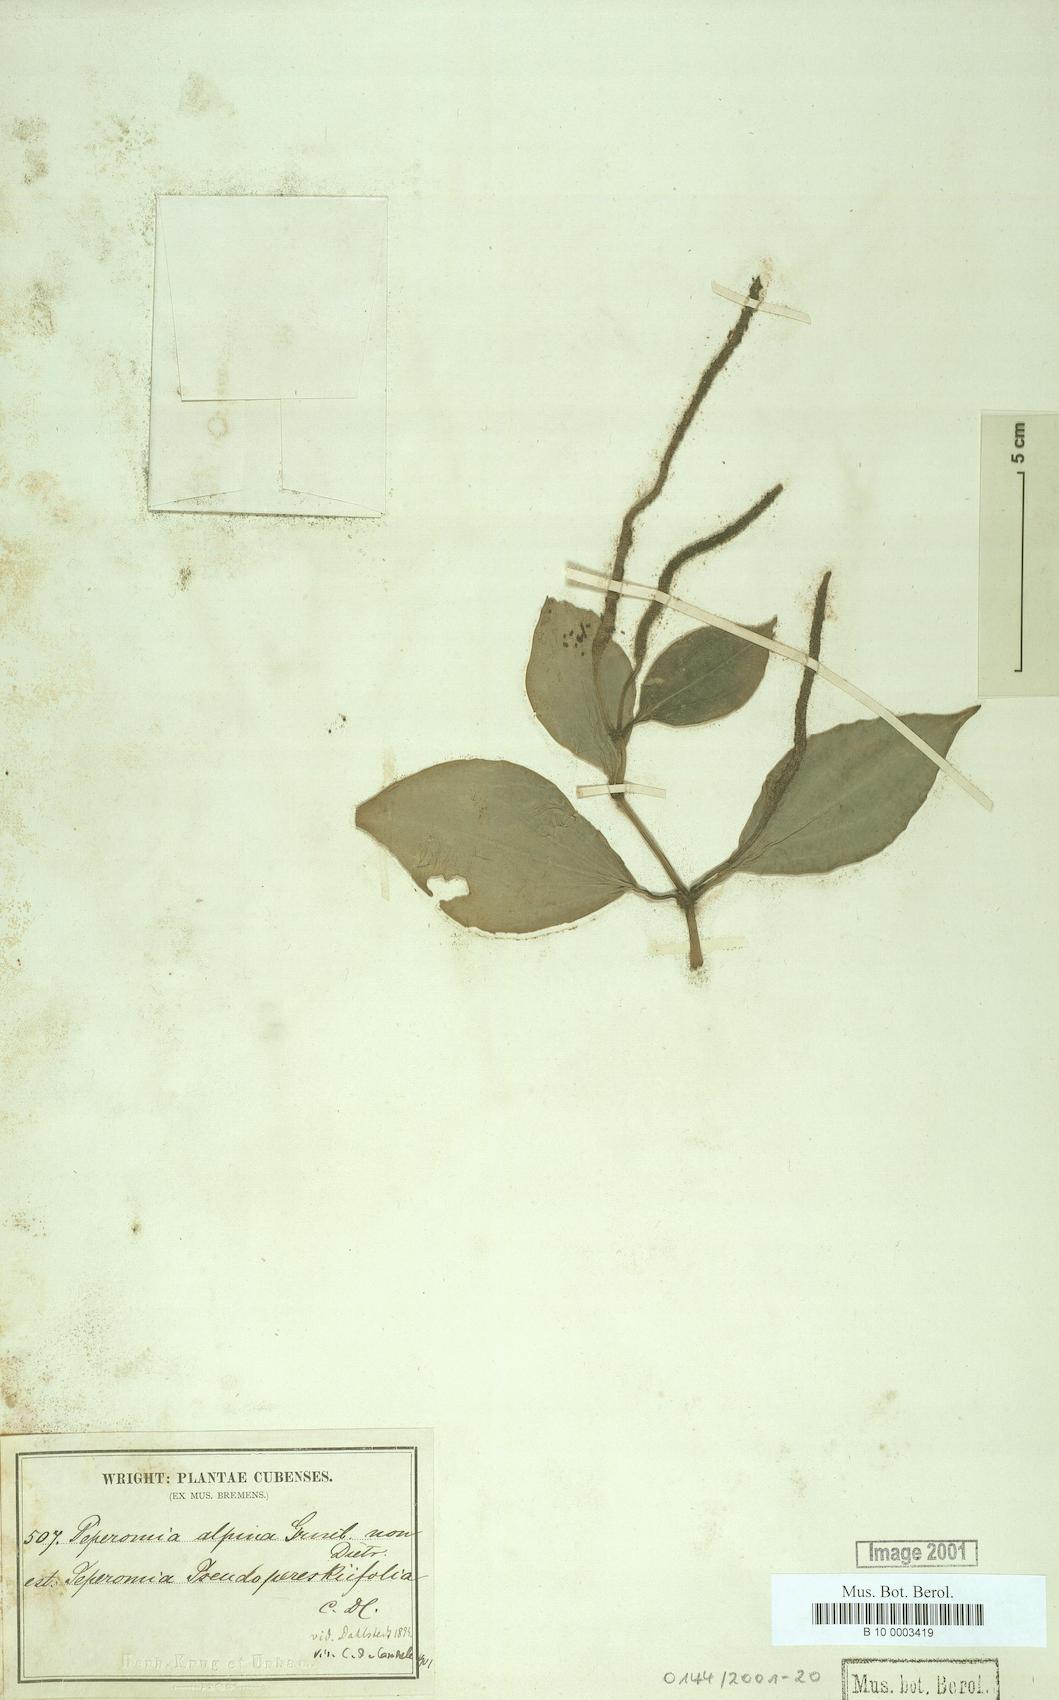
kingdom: Plantae
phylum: Tracheophyta
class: Magnoliopsida
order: Piperales
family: Piperaceae
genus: Peperomia
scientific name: Peperomia pseudopereskiifolia
